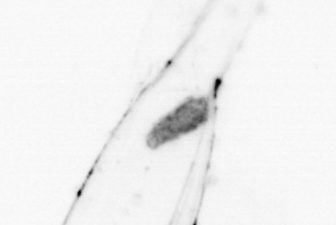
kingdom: Animalia
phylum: Chaetognatha
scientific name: Chaetognatha
